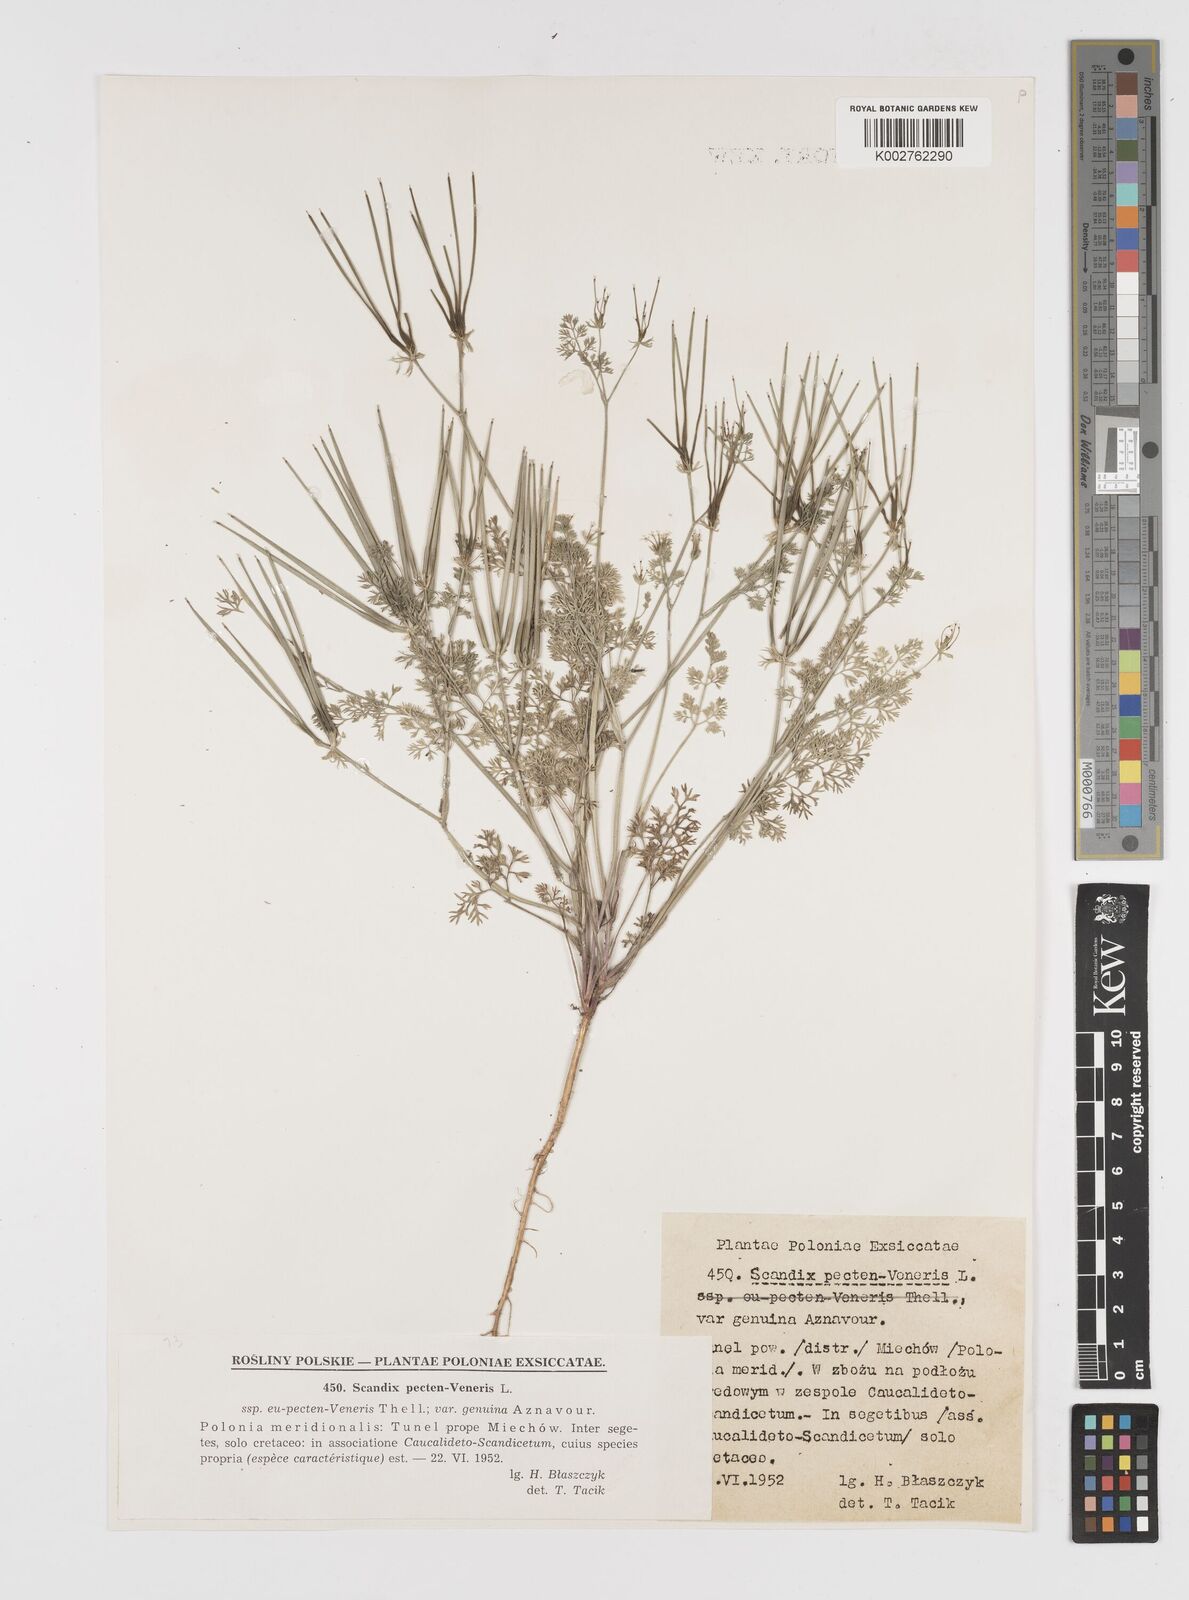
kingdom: Plantae
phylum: Tracheophyta
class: Magnoliopsida
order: Apiales
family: Apiaceae
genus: Scandix
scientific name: Scandix pecten-veneris
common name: Shepherd's-needle
